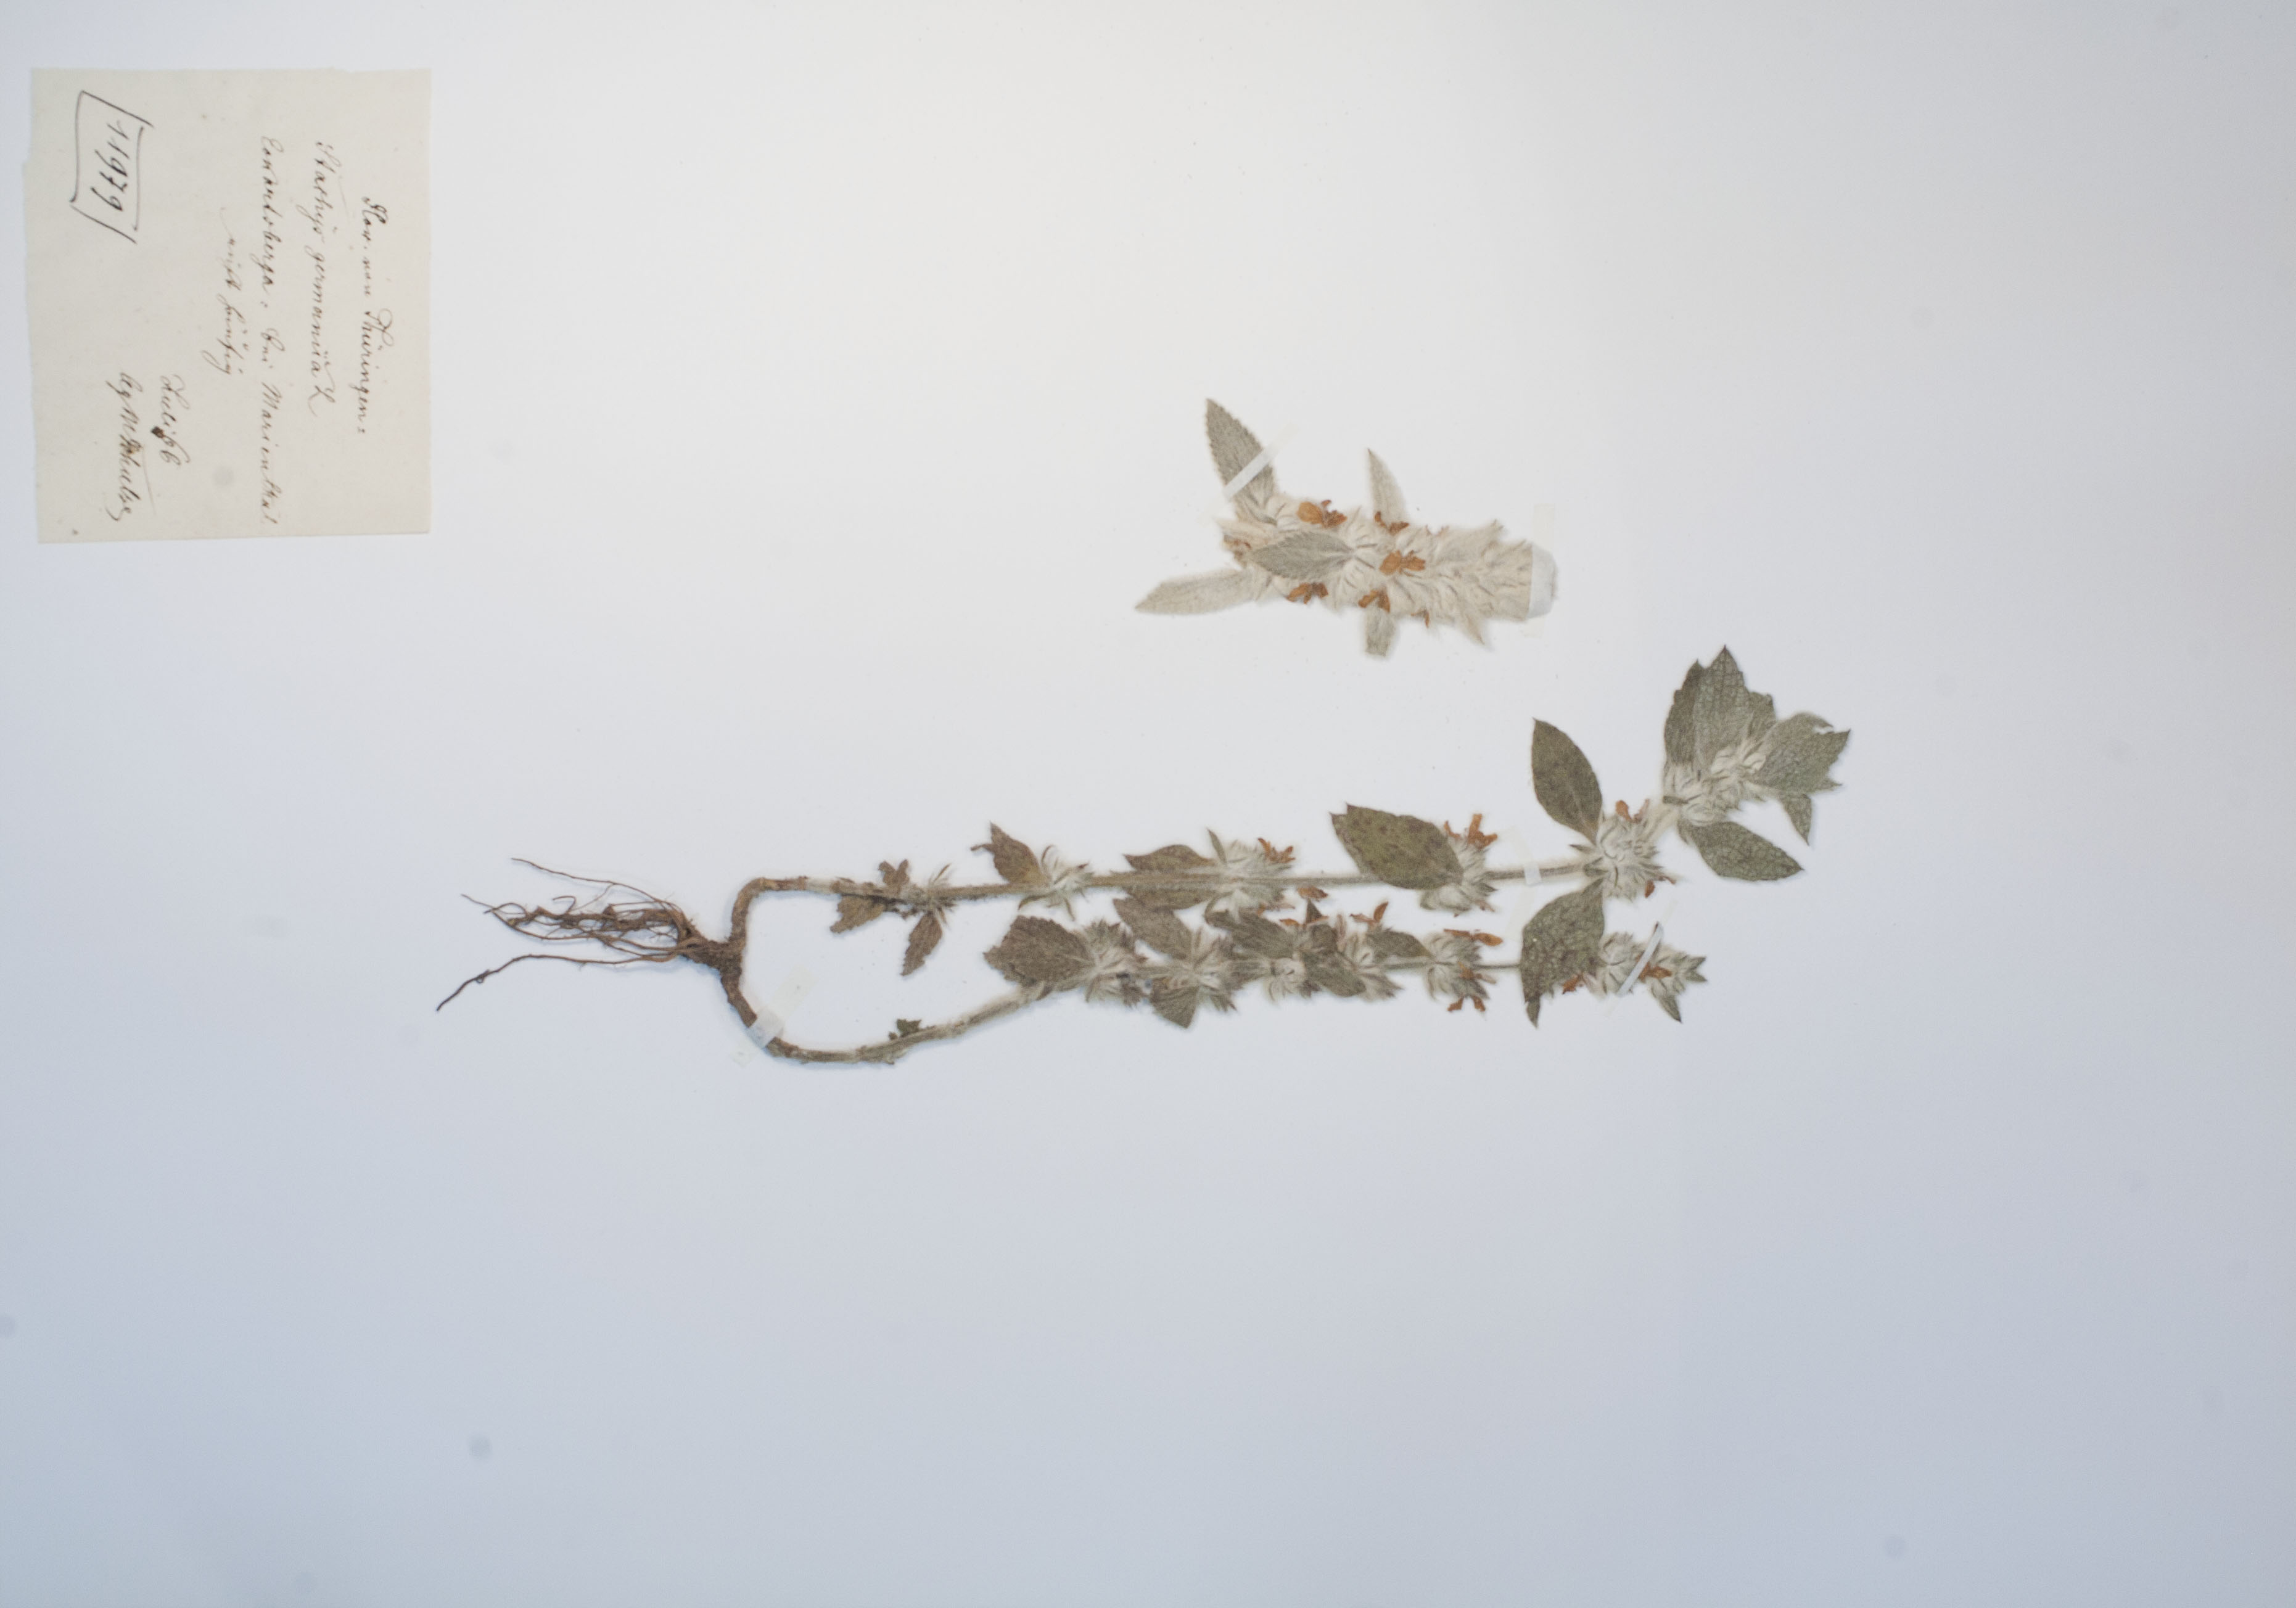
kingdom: Plantae
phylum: Tracheophyta
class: Magnoliopsida
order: Lamiales
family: Lamiaceae
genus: Stachys
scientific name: Stachys germanica
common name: Downy woundwort
